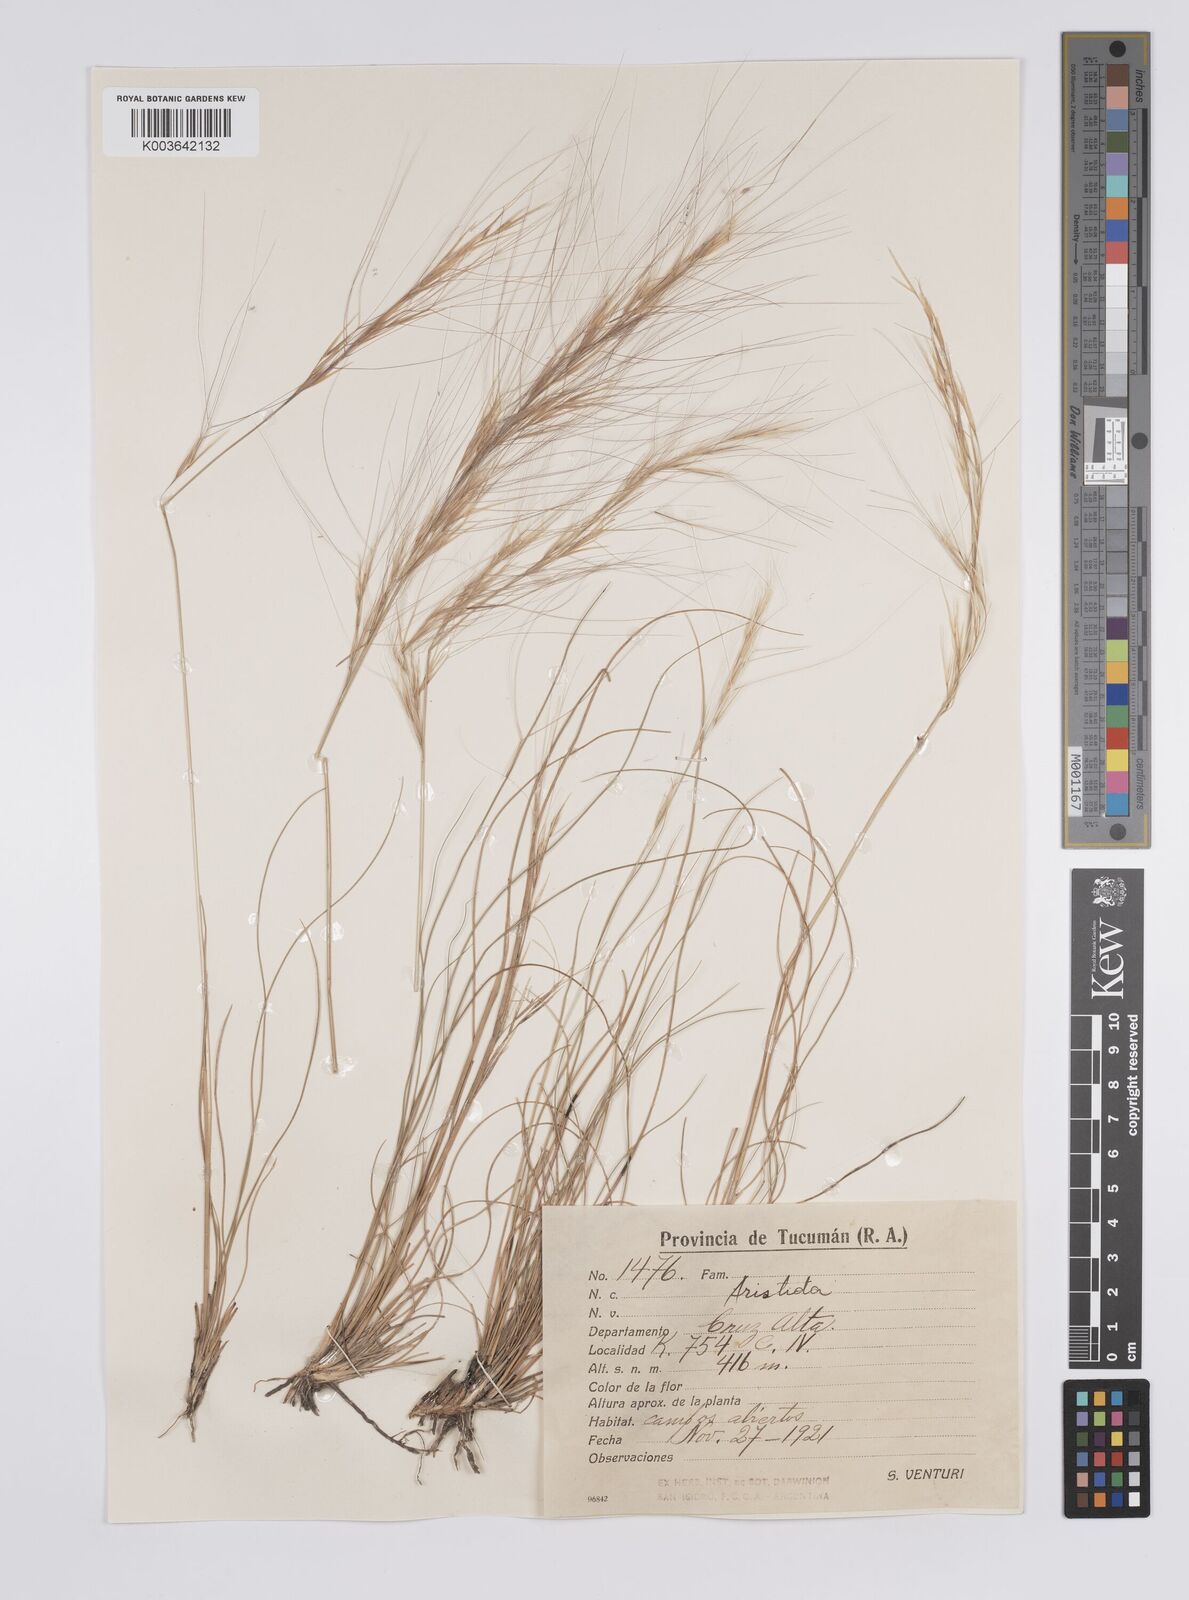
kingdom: Plantae
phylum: Tracheophyta
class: Liliopsida
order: Poales
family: Poaceae
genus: Aristida
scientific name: Aristida
